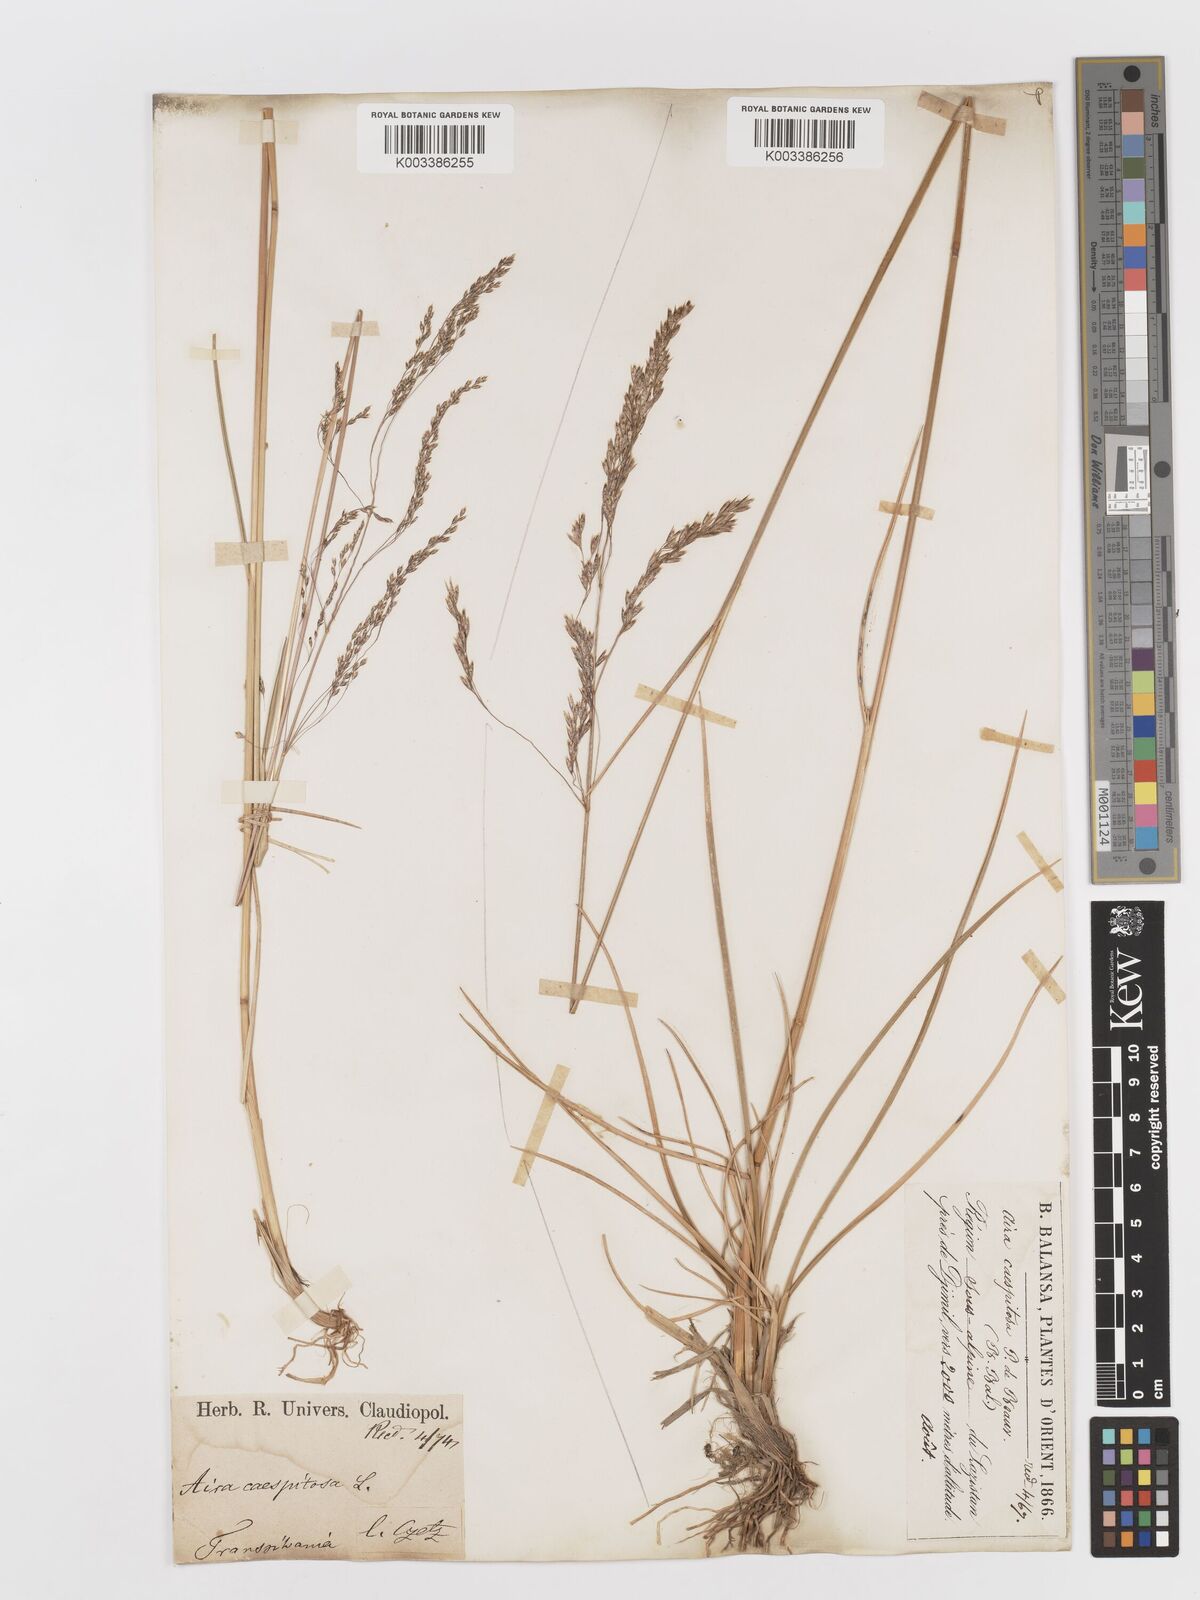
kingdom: Plantae
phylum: Tracheophyta
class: Liliopsida
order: Poales
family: Poaceae
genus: Deschampsia
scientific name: Deschampsia cespitosa
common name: Tufted hair-grass
